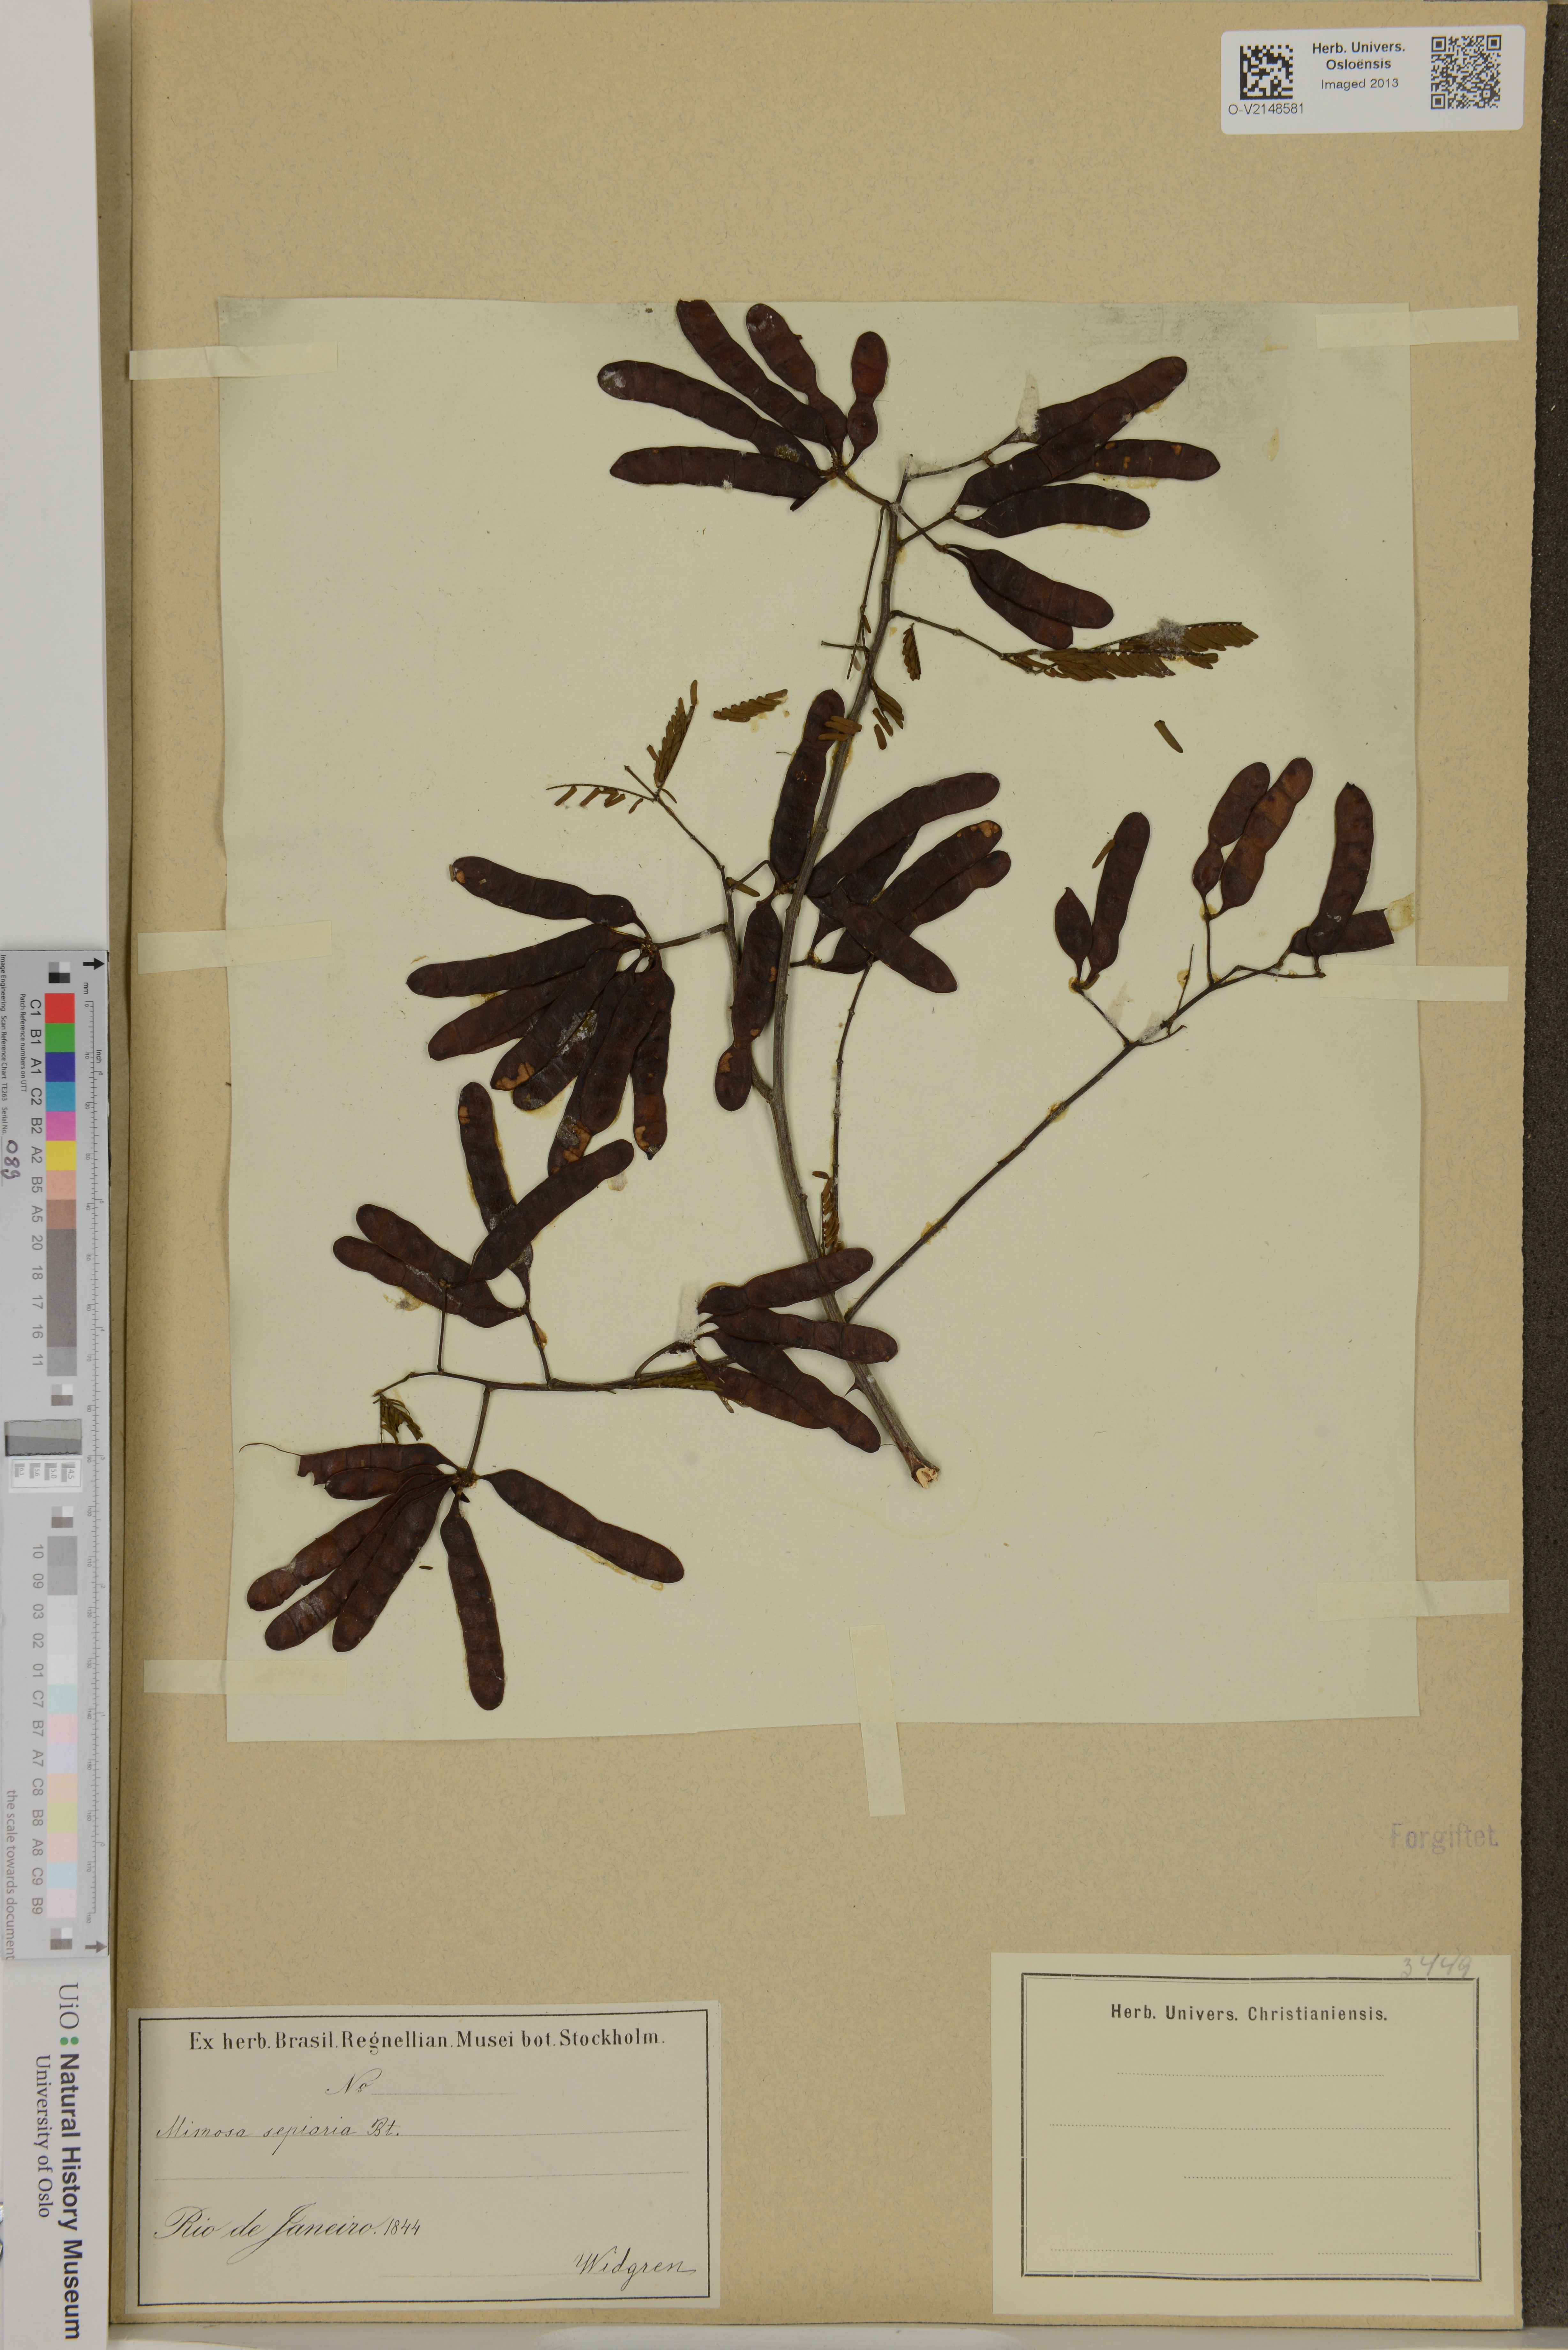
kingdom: Plantae
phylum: Tracheophyta
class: Magnoliopsida
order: Fabales
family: Fabaceae
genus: Mimosa
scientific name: Mimosa bimucronata
